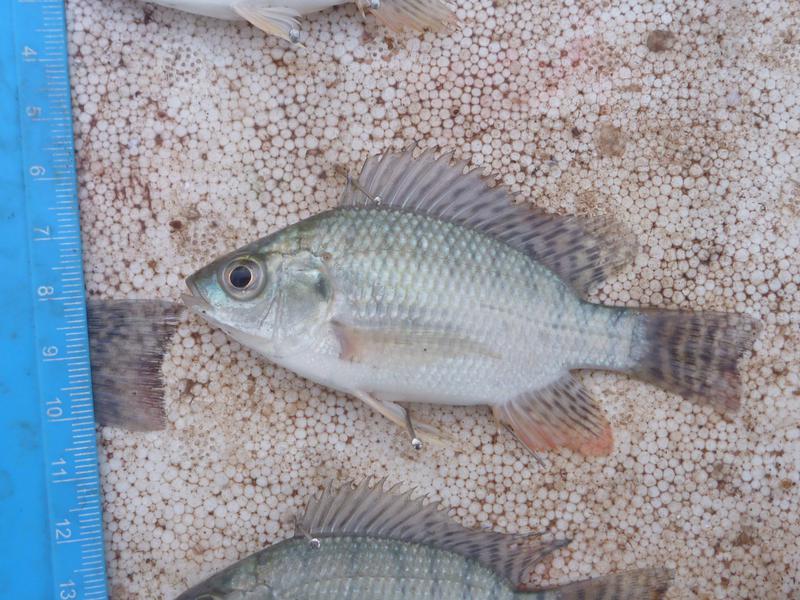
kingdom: Animalia
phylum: Chordata
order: Perciformes
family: Cichlidae
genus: Oreochromis
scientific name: Oreochromis niloticus
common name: Nile tilapia
